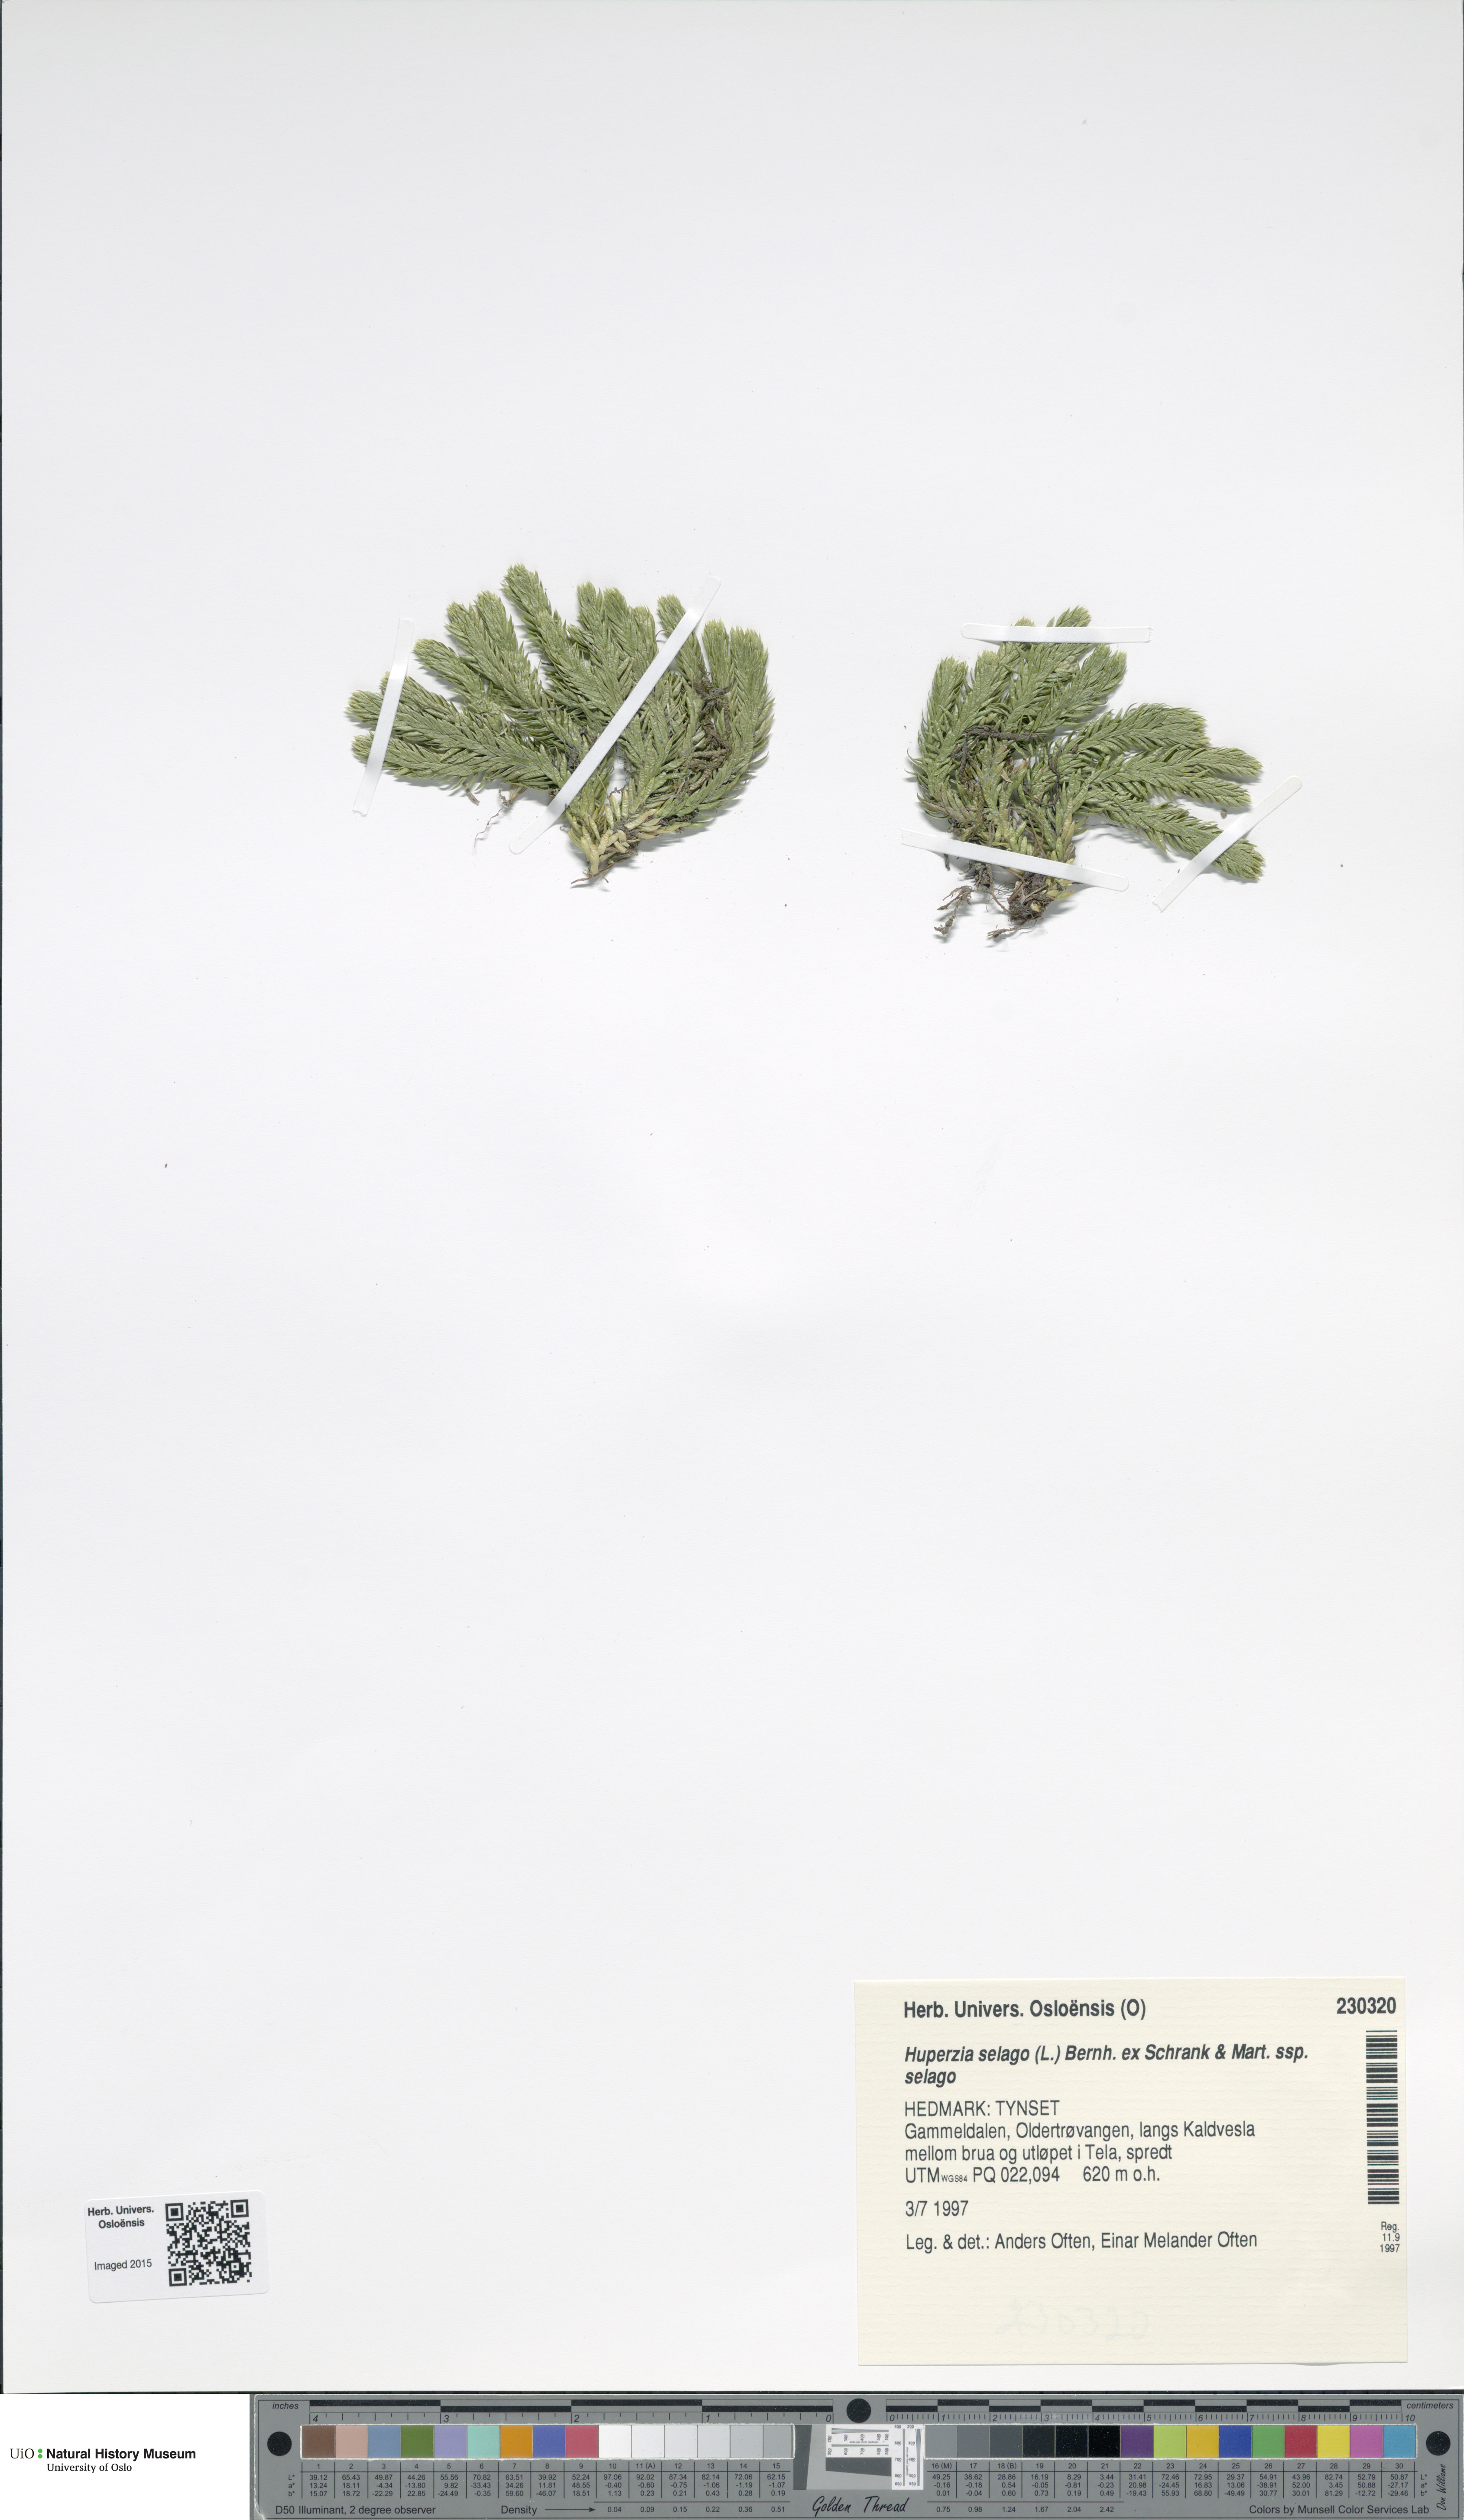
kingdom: Plantae
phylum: Tracheophyta
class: Lycopodiopsida
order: Lycopodiales
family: Lycopodiaceae
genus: Huperzia
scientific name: Huperzia selago
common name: Northern firmoss
